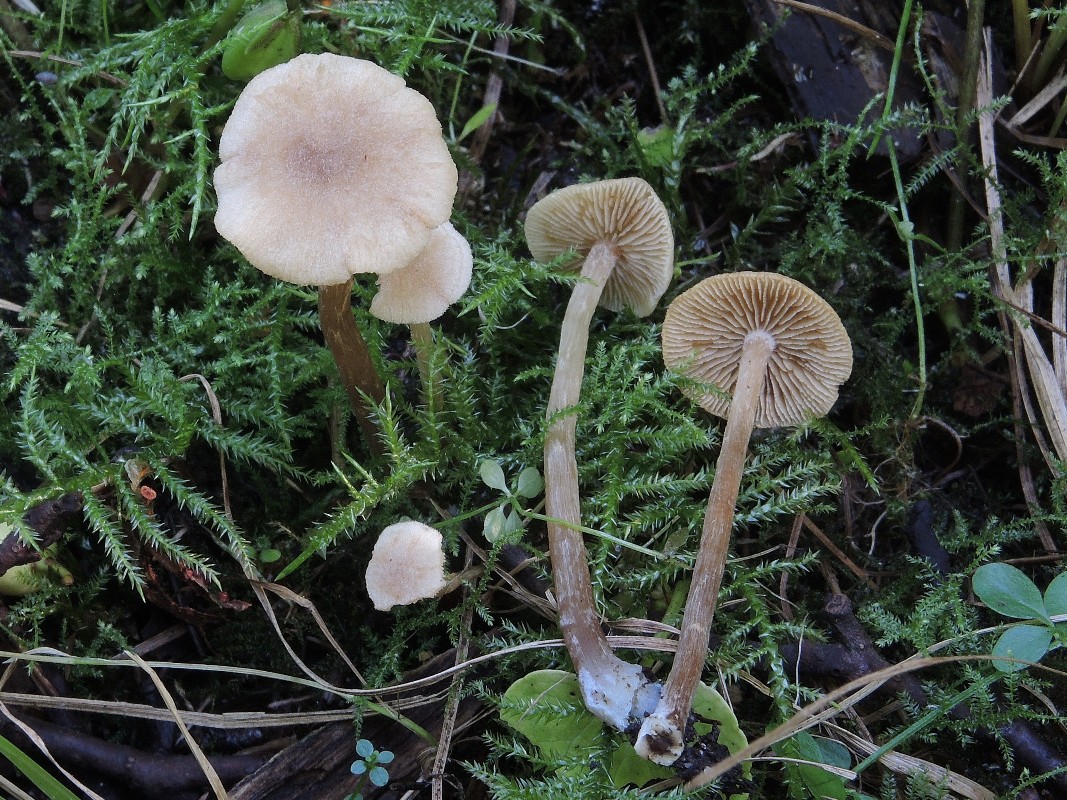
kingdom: Fungi
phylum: Basidiomycota
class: Agaricomycetes
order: Agaricales
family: Hymenogastraceae
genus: Naucoria
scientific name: Naucoria escharioides
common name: lys elle-knaphat
